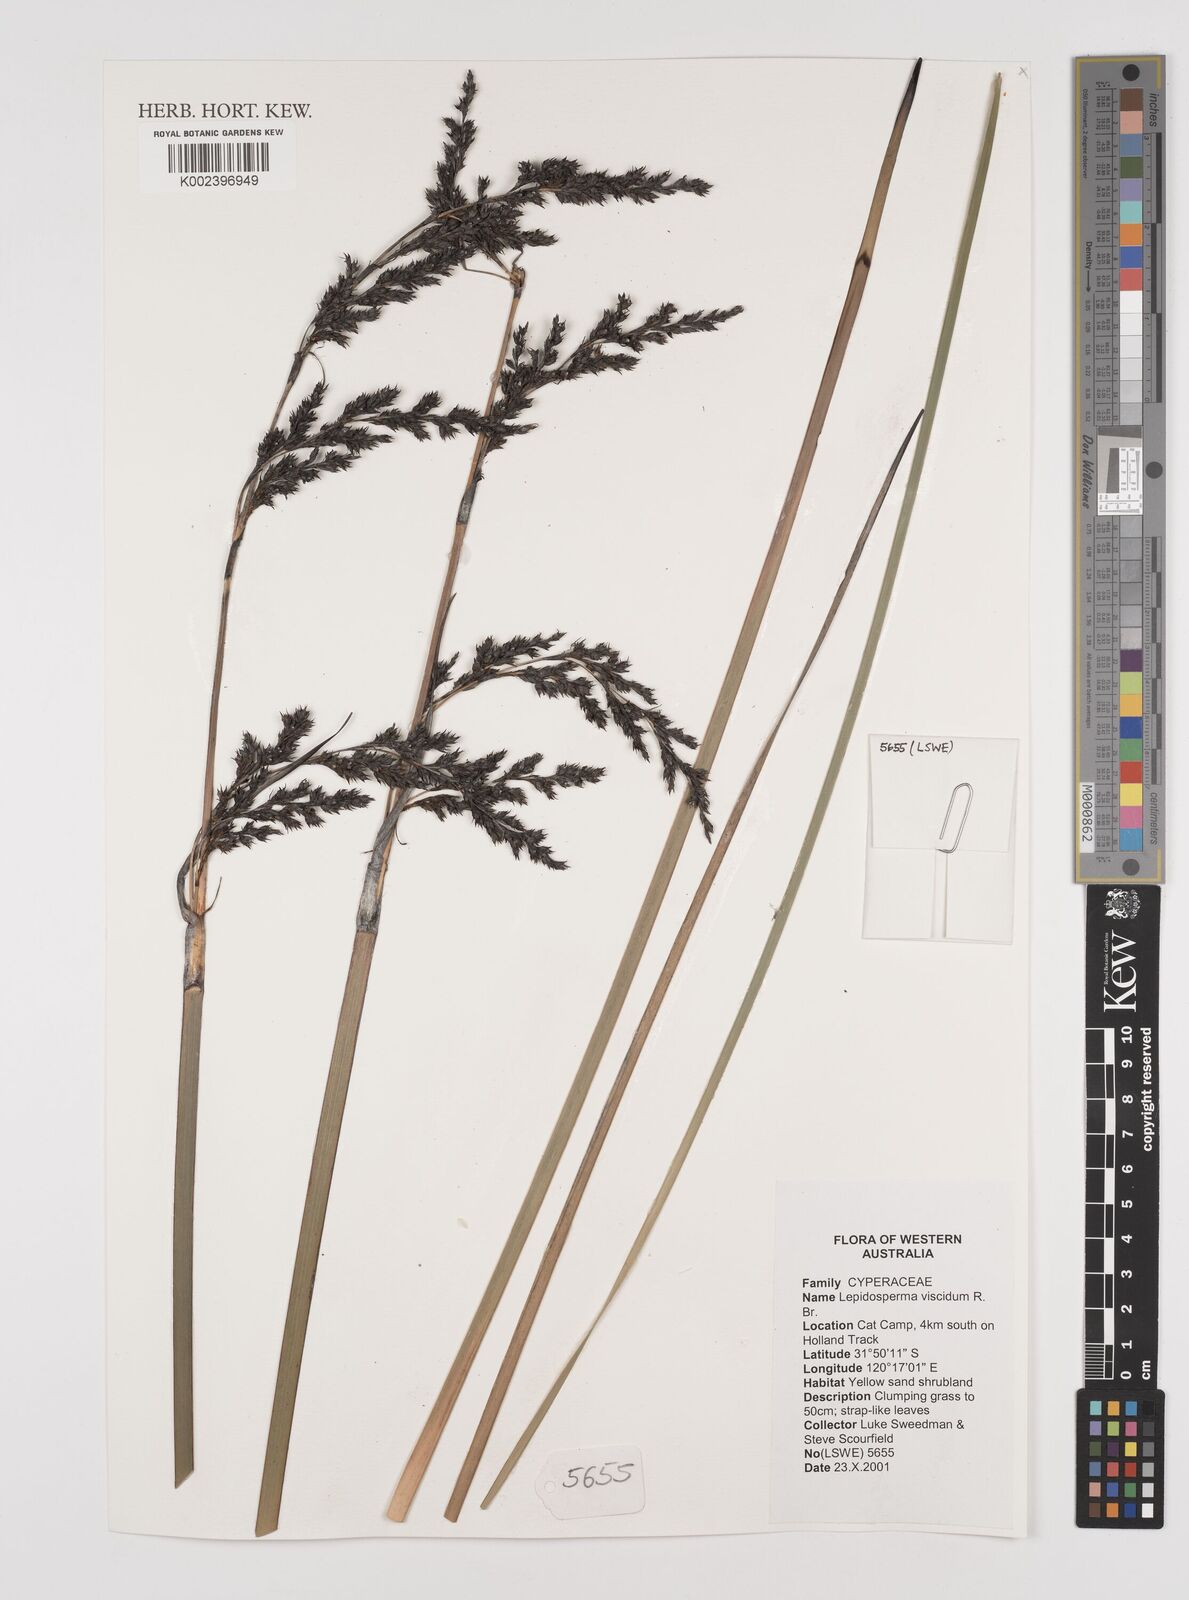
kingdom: Plantae
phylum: Tracheophyta
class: Liliopsida
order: Poales
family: Cyperaceae
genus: Lepidosperma
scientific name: Lepidosperma viscidum
